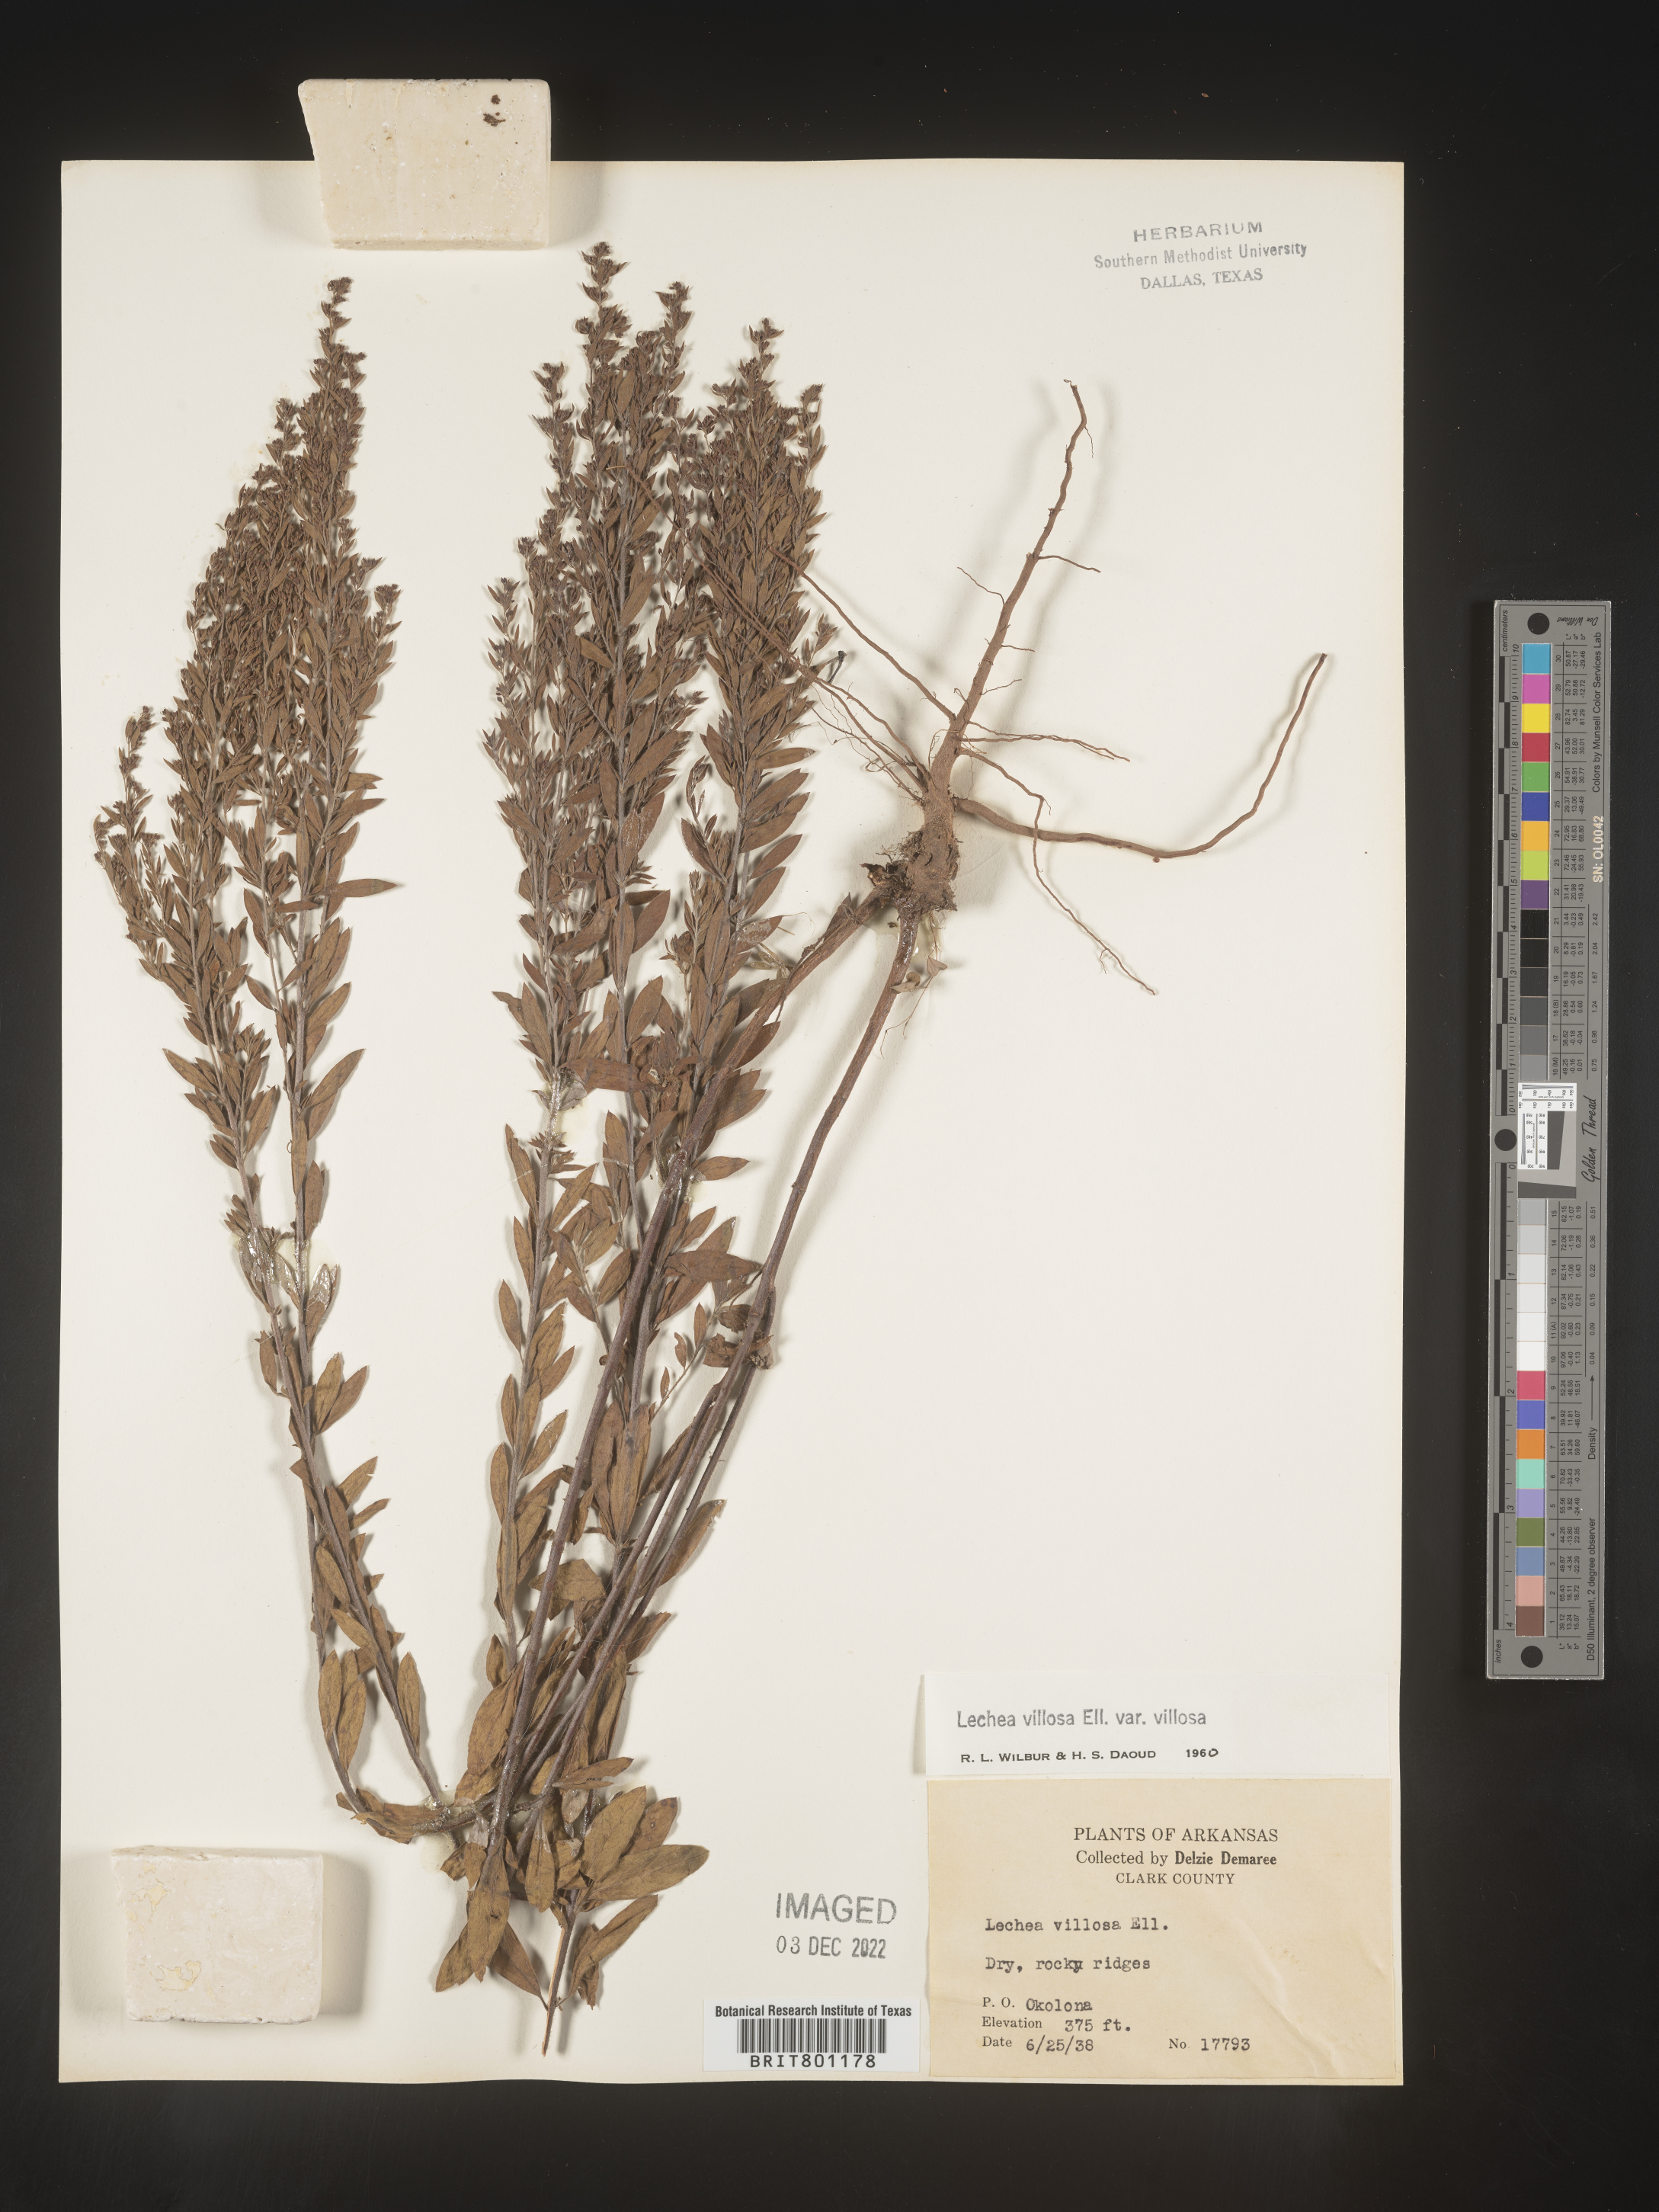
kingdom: Plantae
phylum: Tracheophyta
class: Magnoliopsida
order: Malvales
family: Cistaceae
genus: Lechea
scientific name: Lechea mucronata
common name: Hairy pinweed
